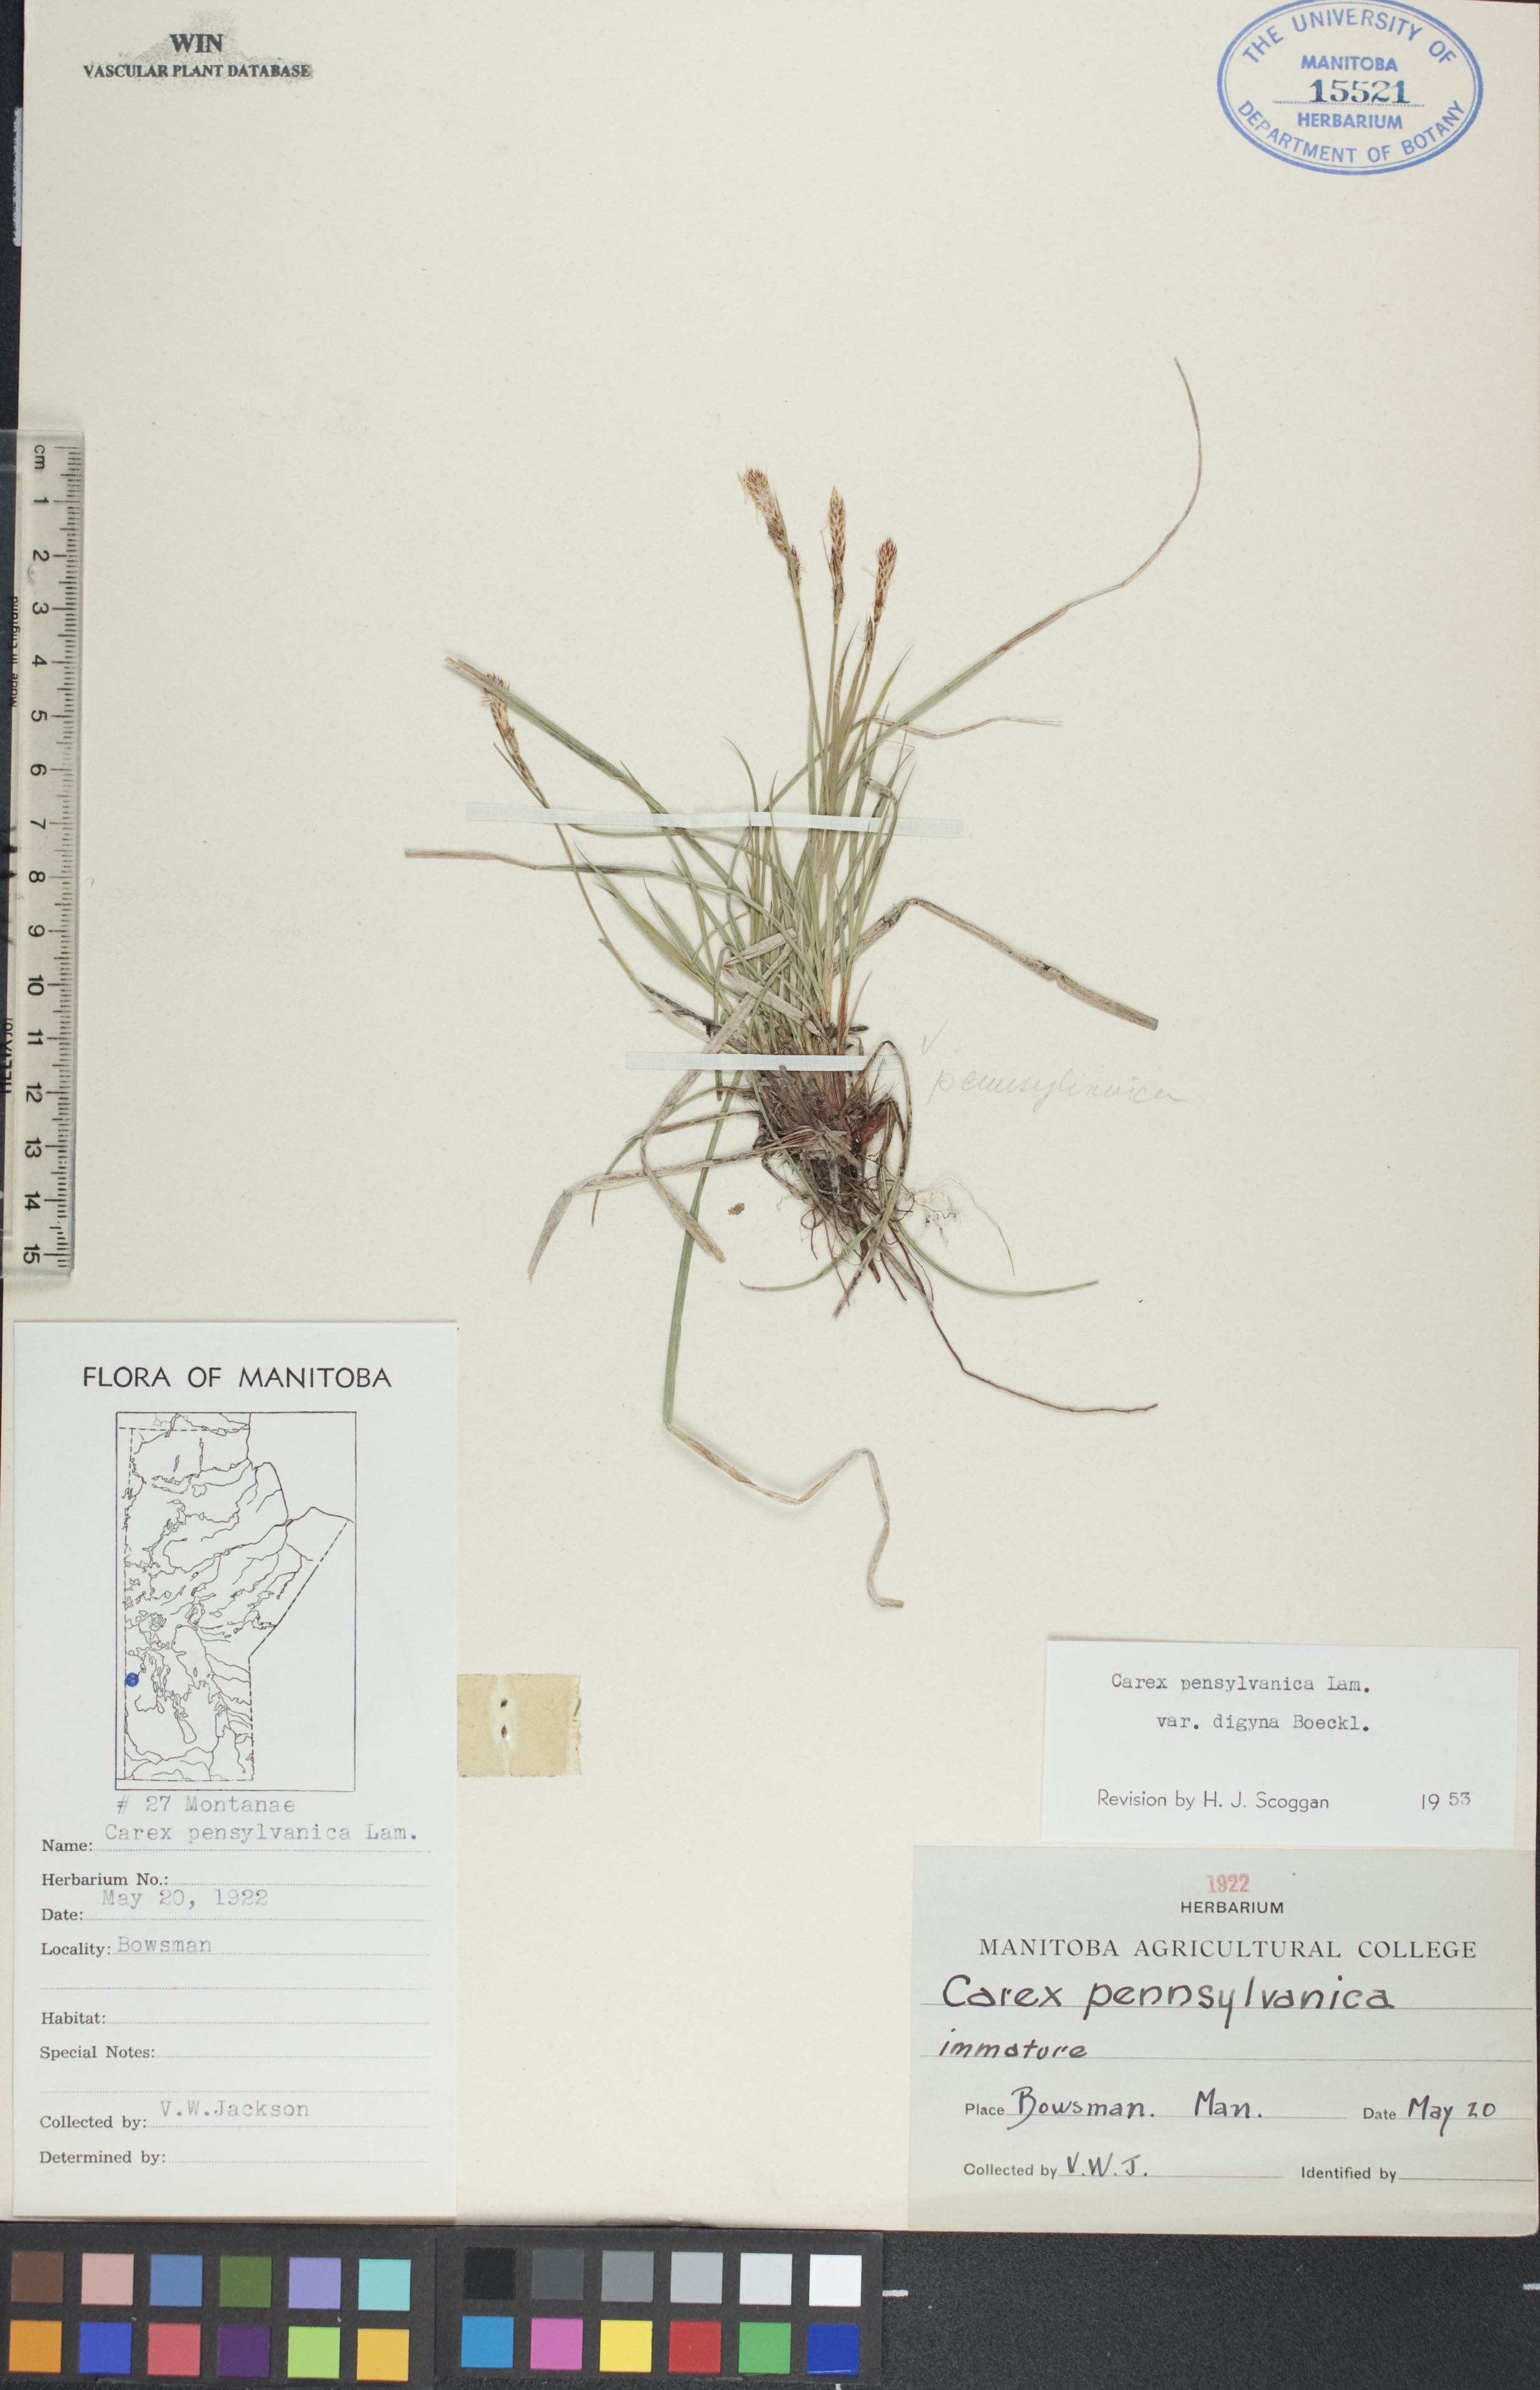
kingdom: Plantae
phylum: Tracheophyta
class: Liliopsida
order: Poales
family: Cyperaceae
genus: Carex
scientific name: Carex pensylvanica
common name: Common oak sedge
